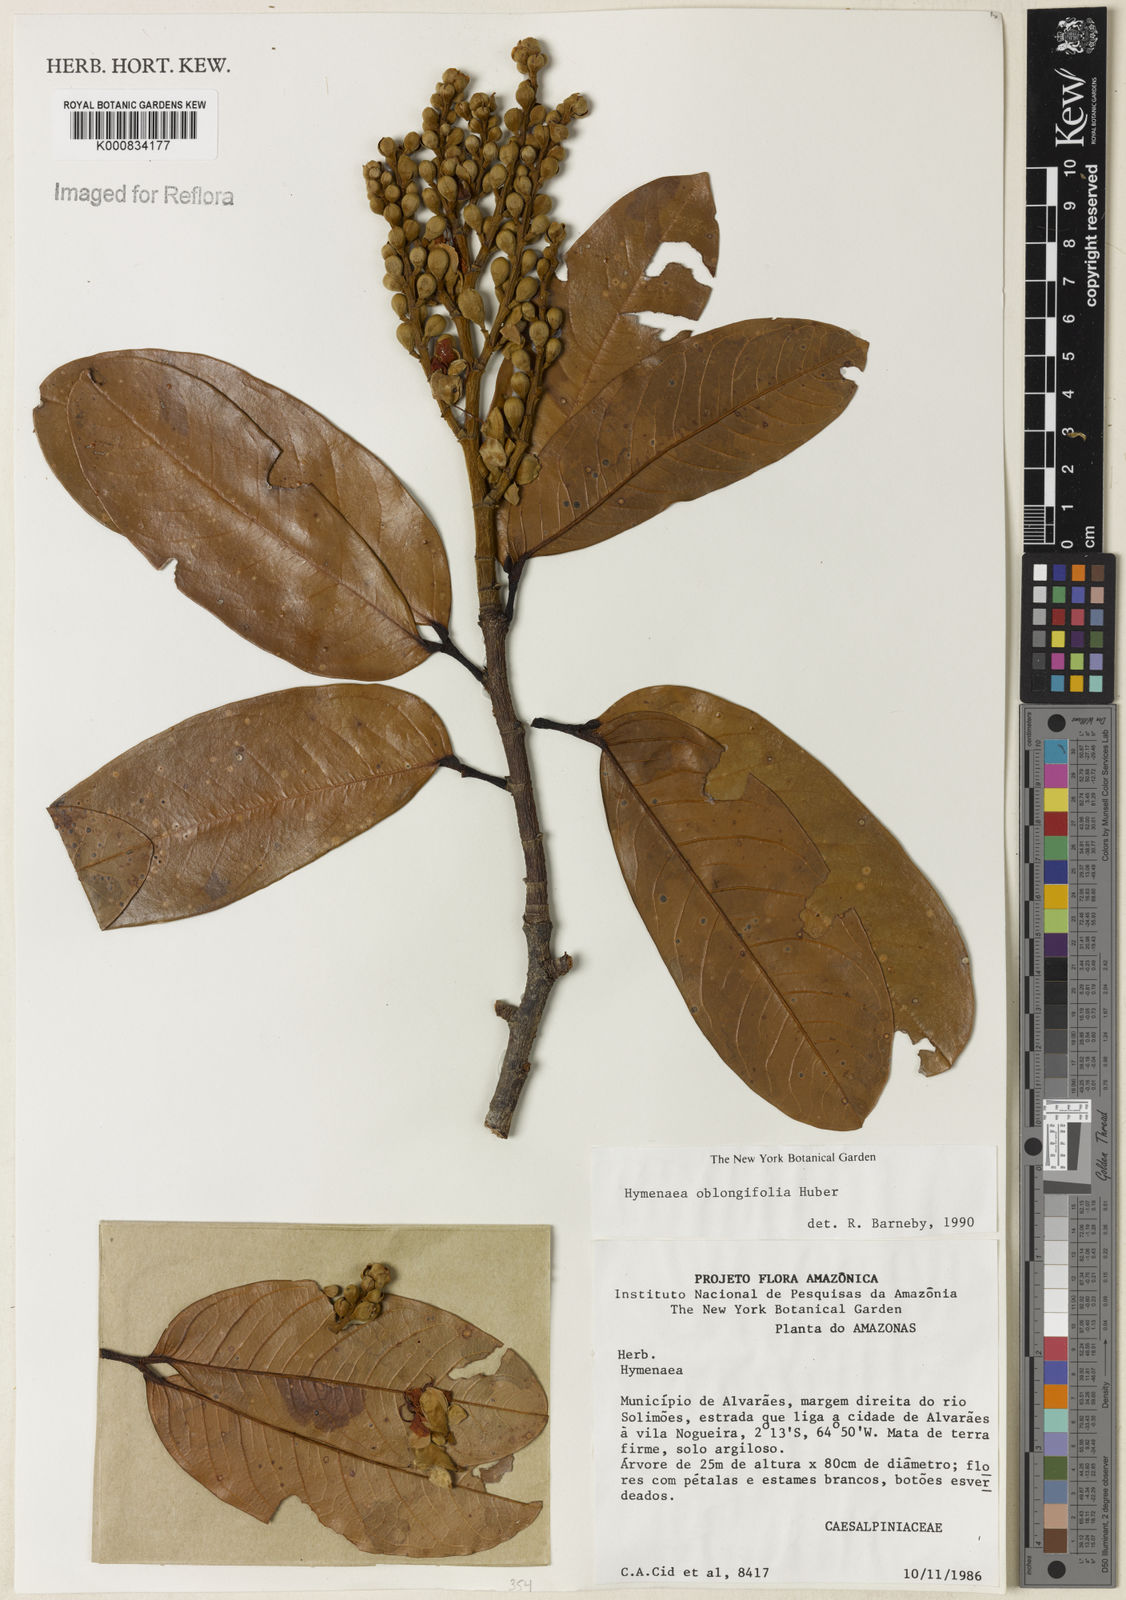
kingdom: Plantae
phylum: Tracheophyta
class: Magnoliopsida
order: Fabales
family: Fabaceae
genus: Hymenaea
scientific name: Hymenaea oblongifolia
